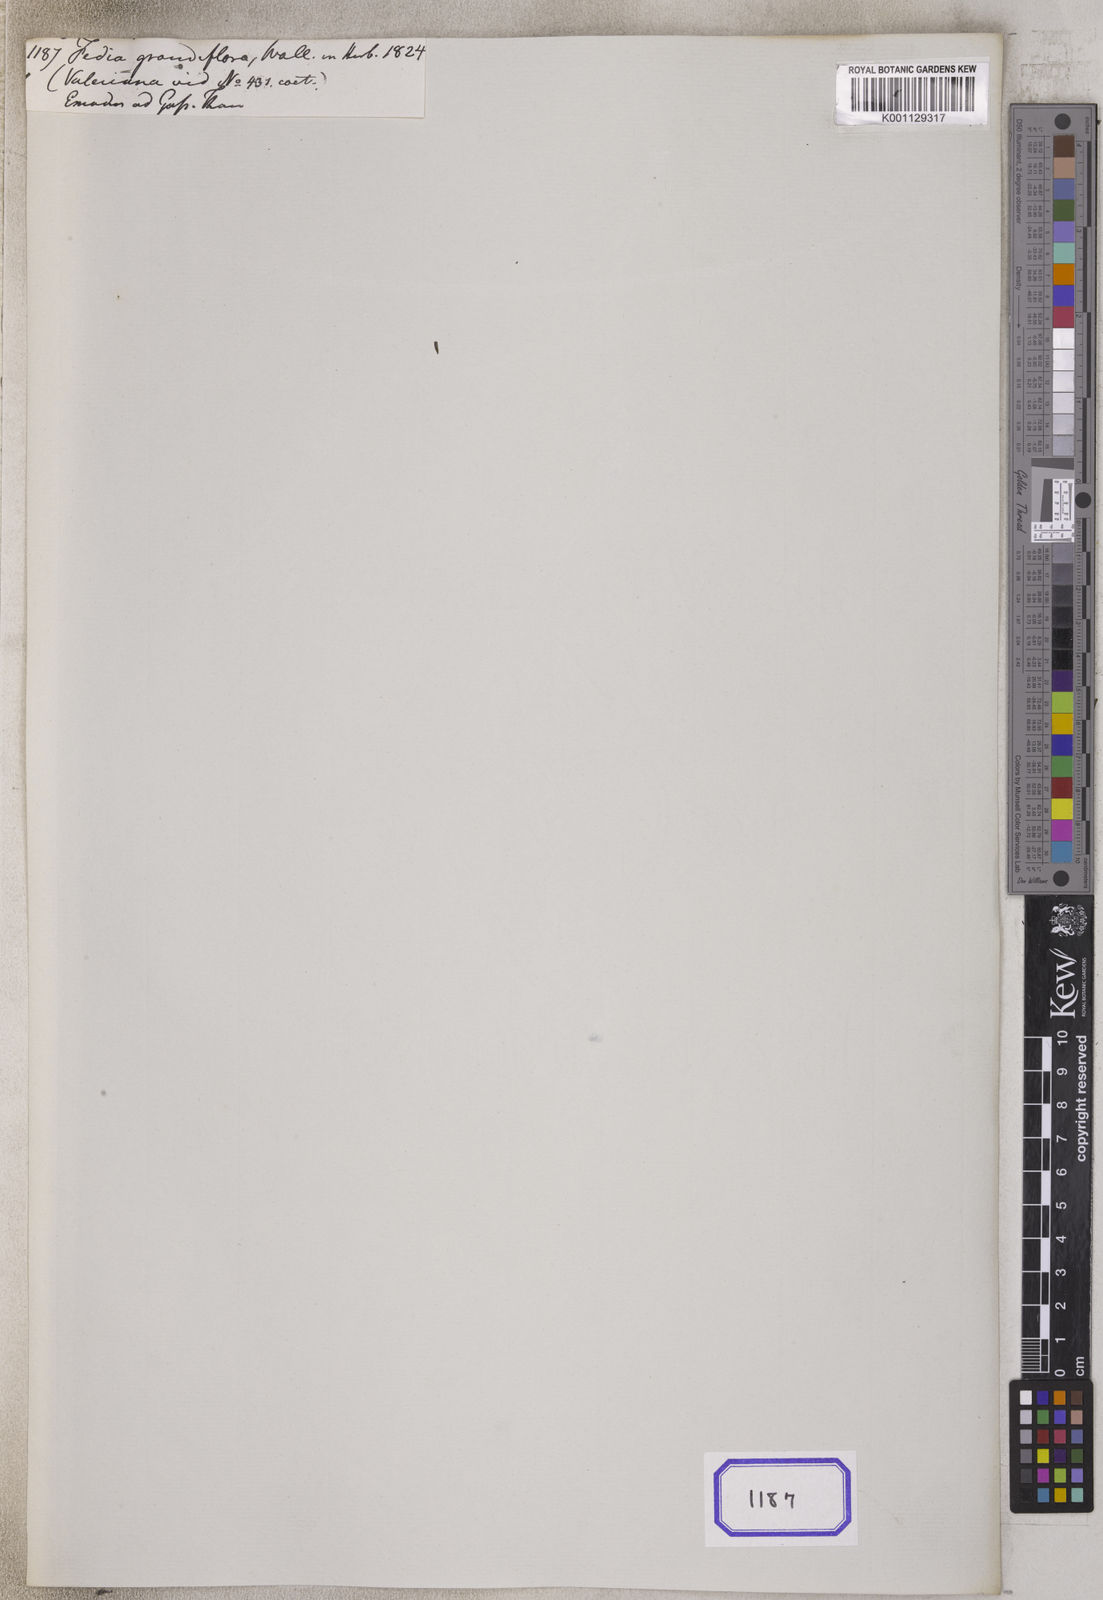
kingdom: Plantae
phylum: Tracheophyta
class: Magnoliopsida
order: Dipsacales
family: Caprifoliaceae
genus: Nardostachys
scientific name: Nardostachys jatamansi
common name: Indian nard
